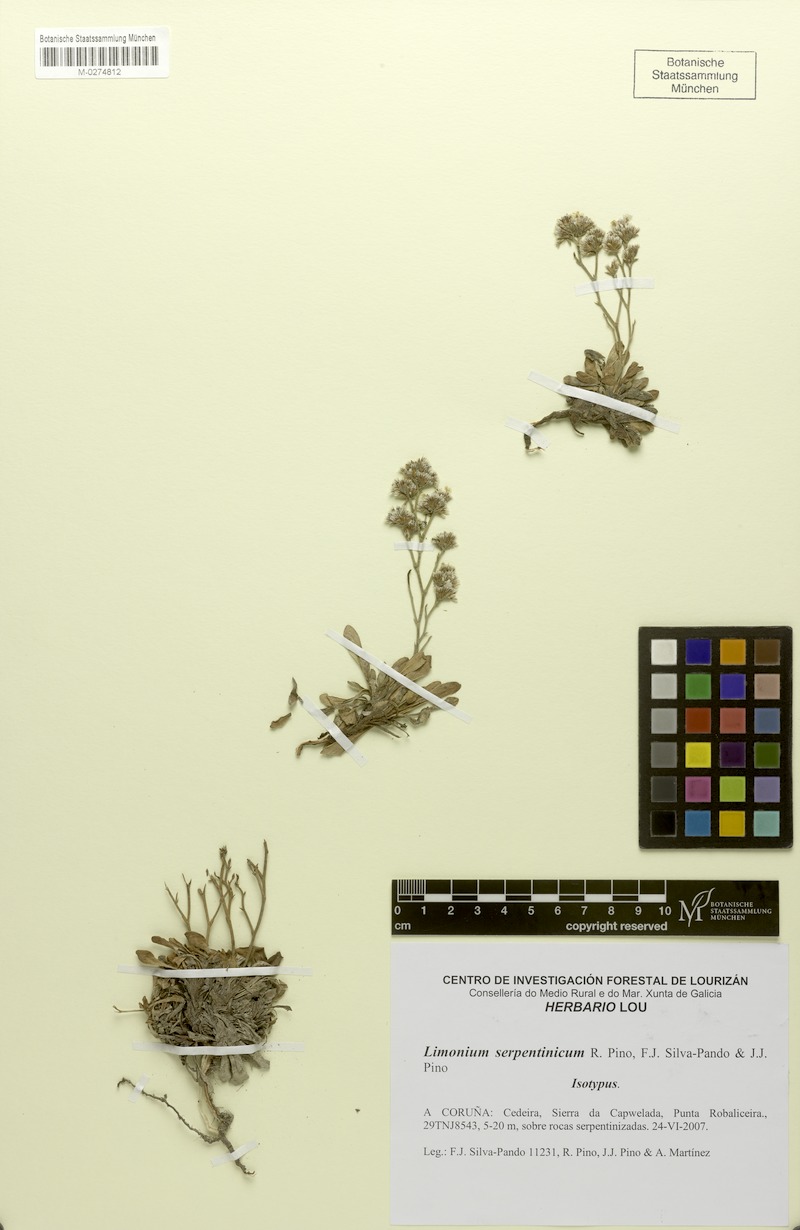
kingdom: Plantae
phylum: Tracheophyta
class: Magnoliopsida
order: Caryophyllales
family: Plumbaginaceae
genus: Limonium
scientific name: Limonium serpentinicum
